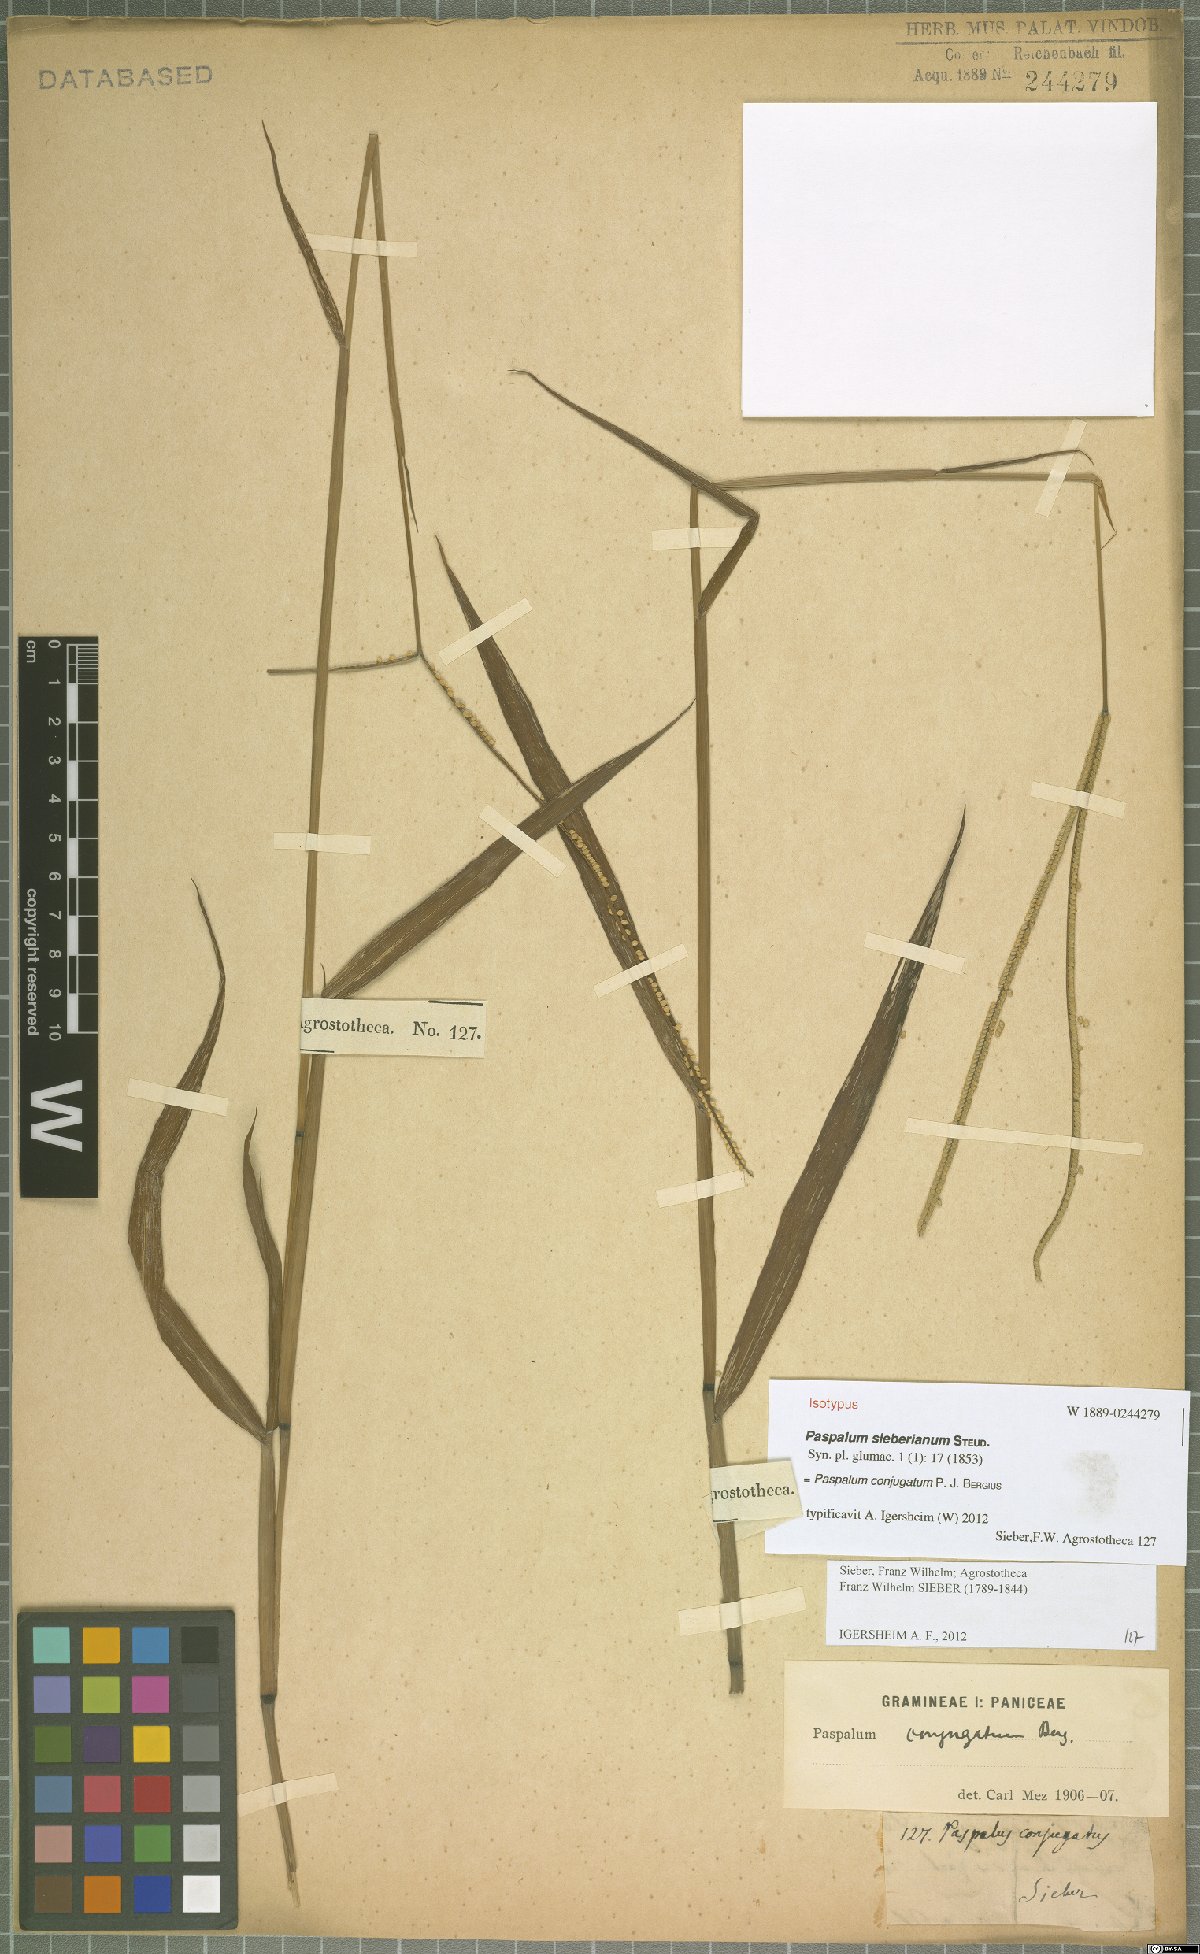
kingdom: Plantae
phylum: Tracheophyta
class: Liliopsida
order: Poales
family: Poaceae
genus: Paspalum
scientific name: Paspalum conjugatum
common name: Hilograss
